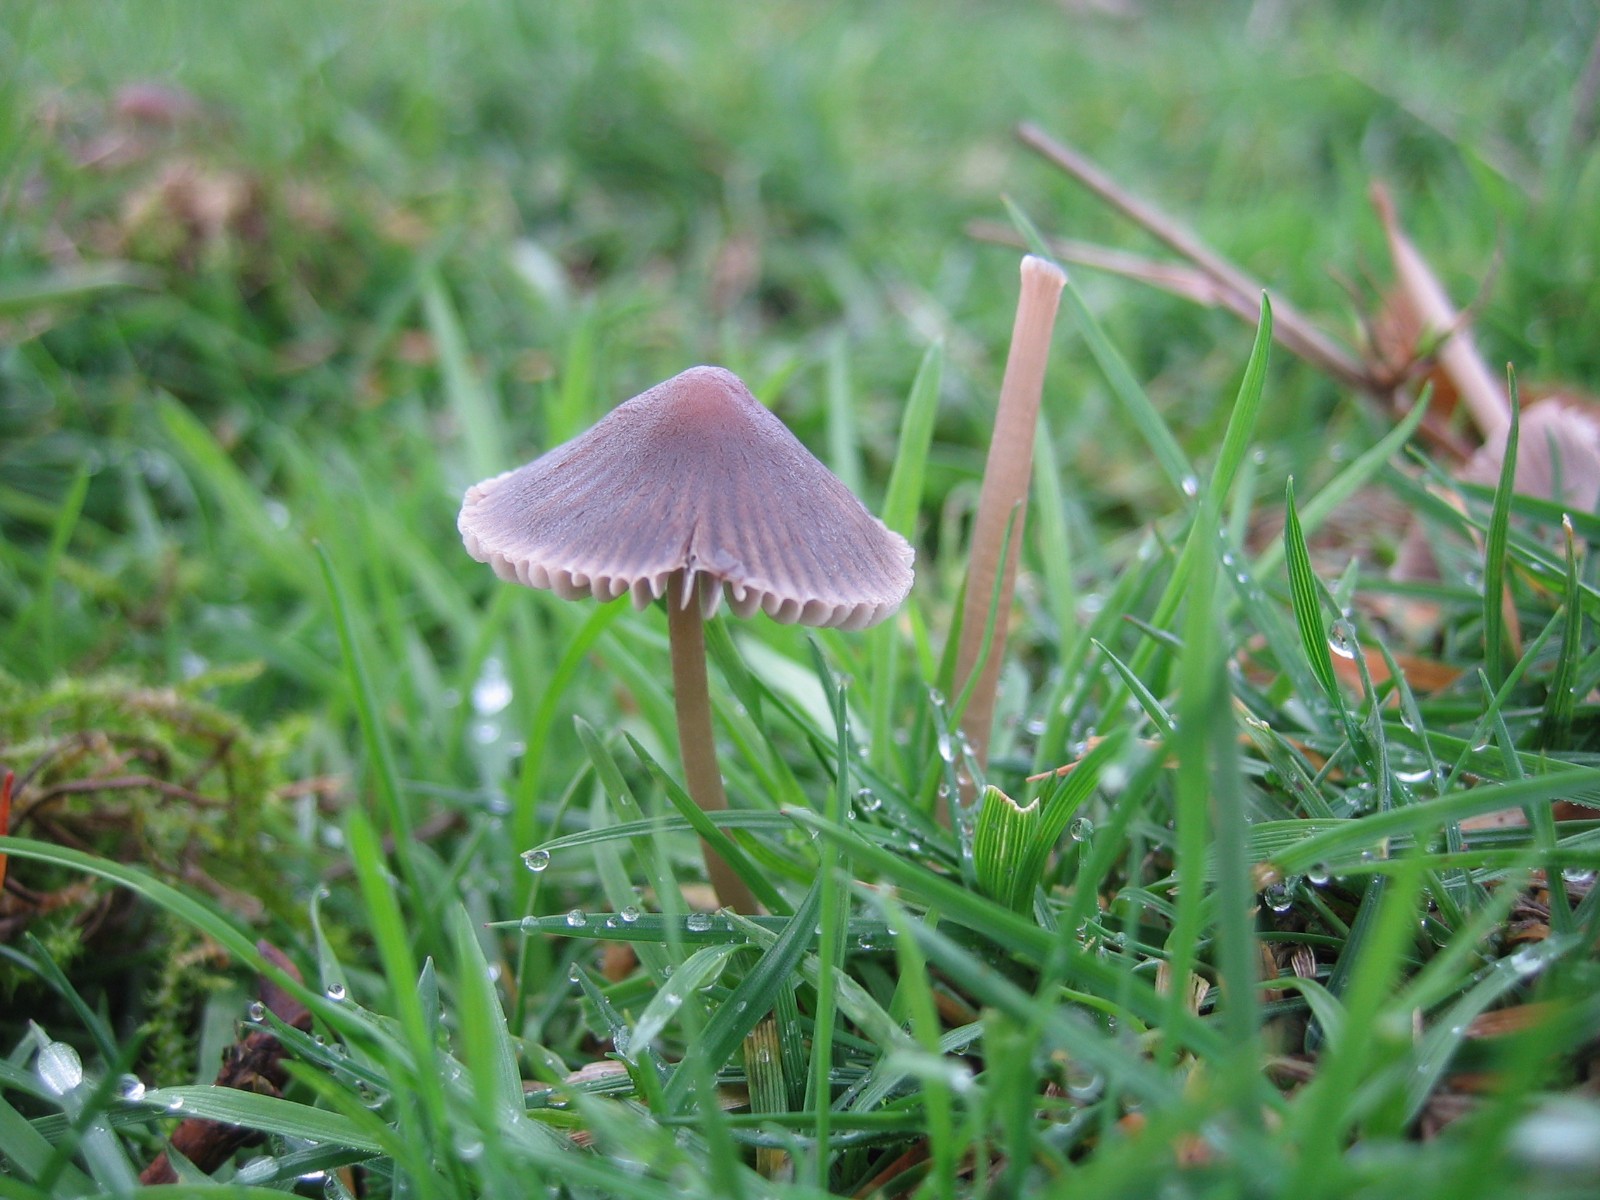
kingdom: Fungi
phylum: Basidiomycota
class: Agaricomycetes
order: Agaricales
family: Mycenaceae
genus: Mycena
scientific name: Mycena aetites
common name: plæne-huesvamp
